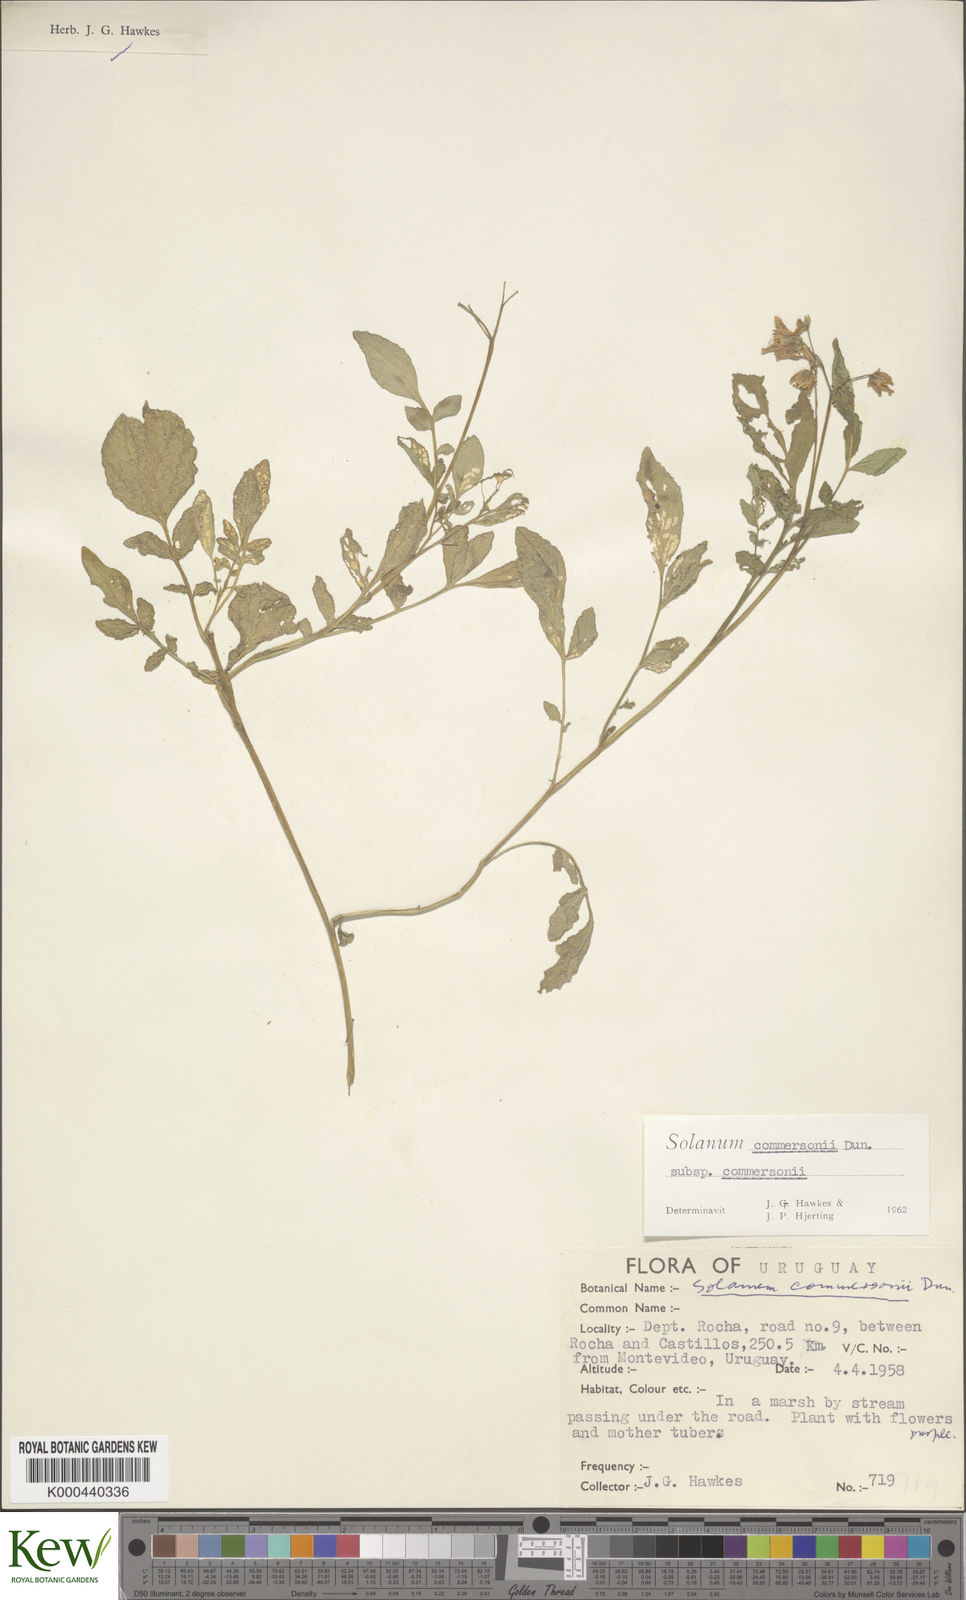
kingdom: Plantae
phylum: Tracheophyta
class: Magnoliopsida
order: Solanales
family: Solanaceae
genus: Solanum
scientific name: Solanum commersonii
